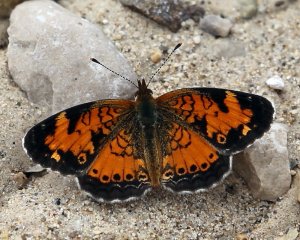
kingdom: Animalia
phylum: Arthropoda
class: Insecta
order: Lepidoptera
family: Nymphalidae
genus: Phyciodes
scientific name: Phyciodes tharos
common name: Northern Crescent
